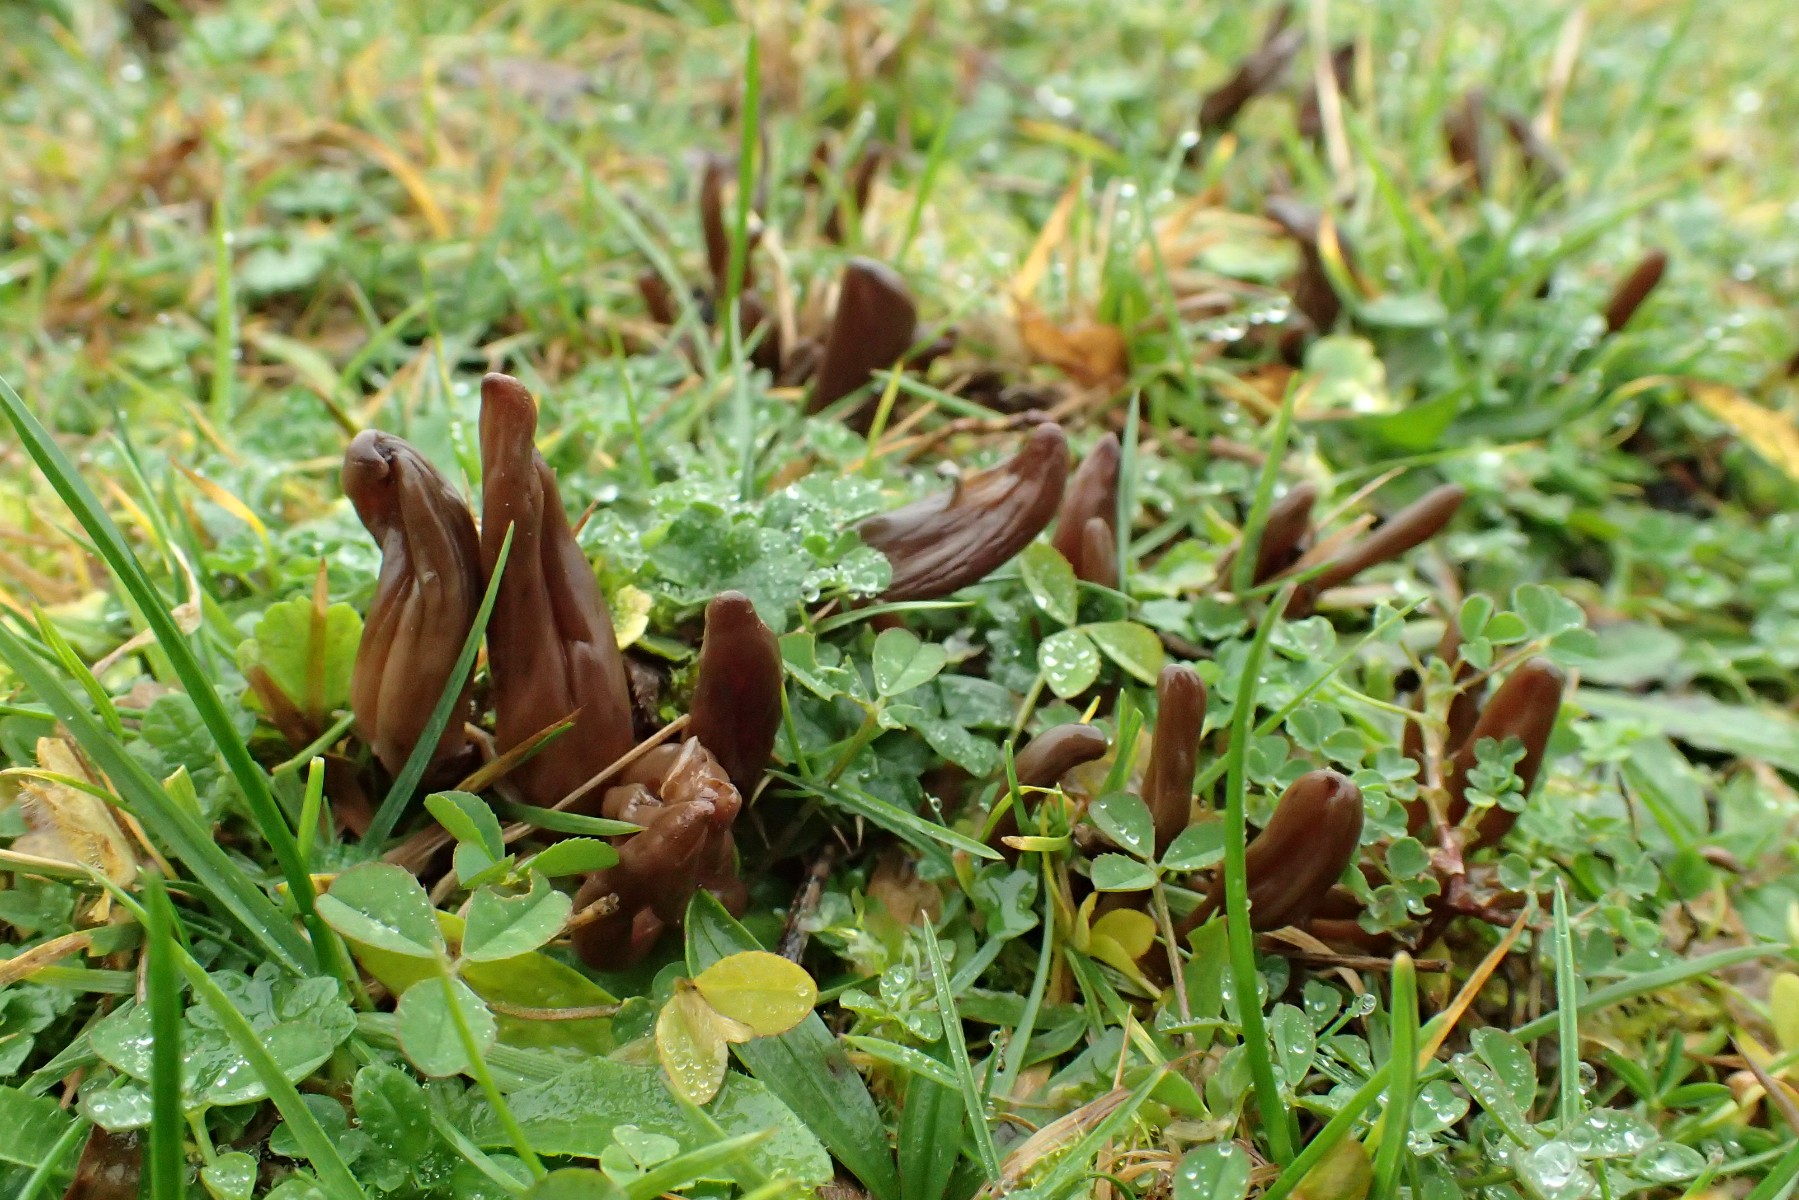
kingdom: Fungi
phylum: Ascomycota
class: Leotiomycetes
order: Leotiales
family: Leotiaceae
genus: Microglossum
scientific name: Microglossum olivaceum
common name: olivenbrun farvetunge
